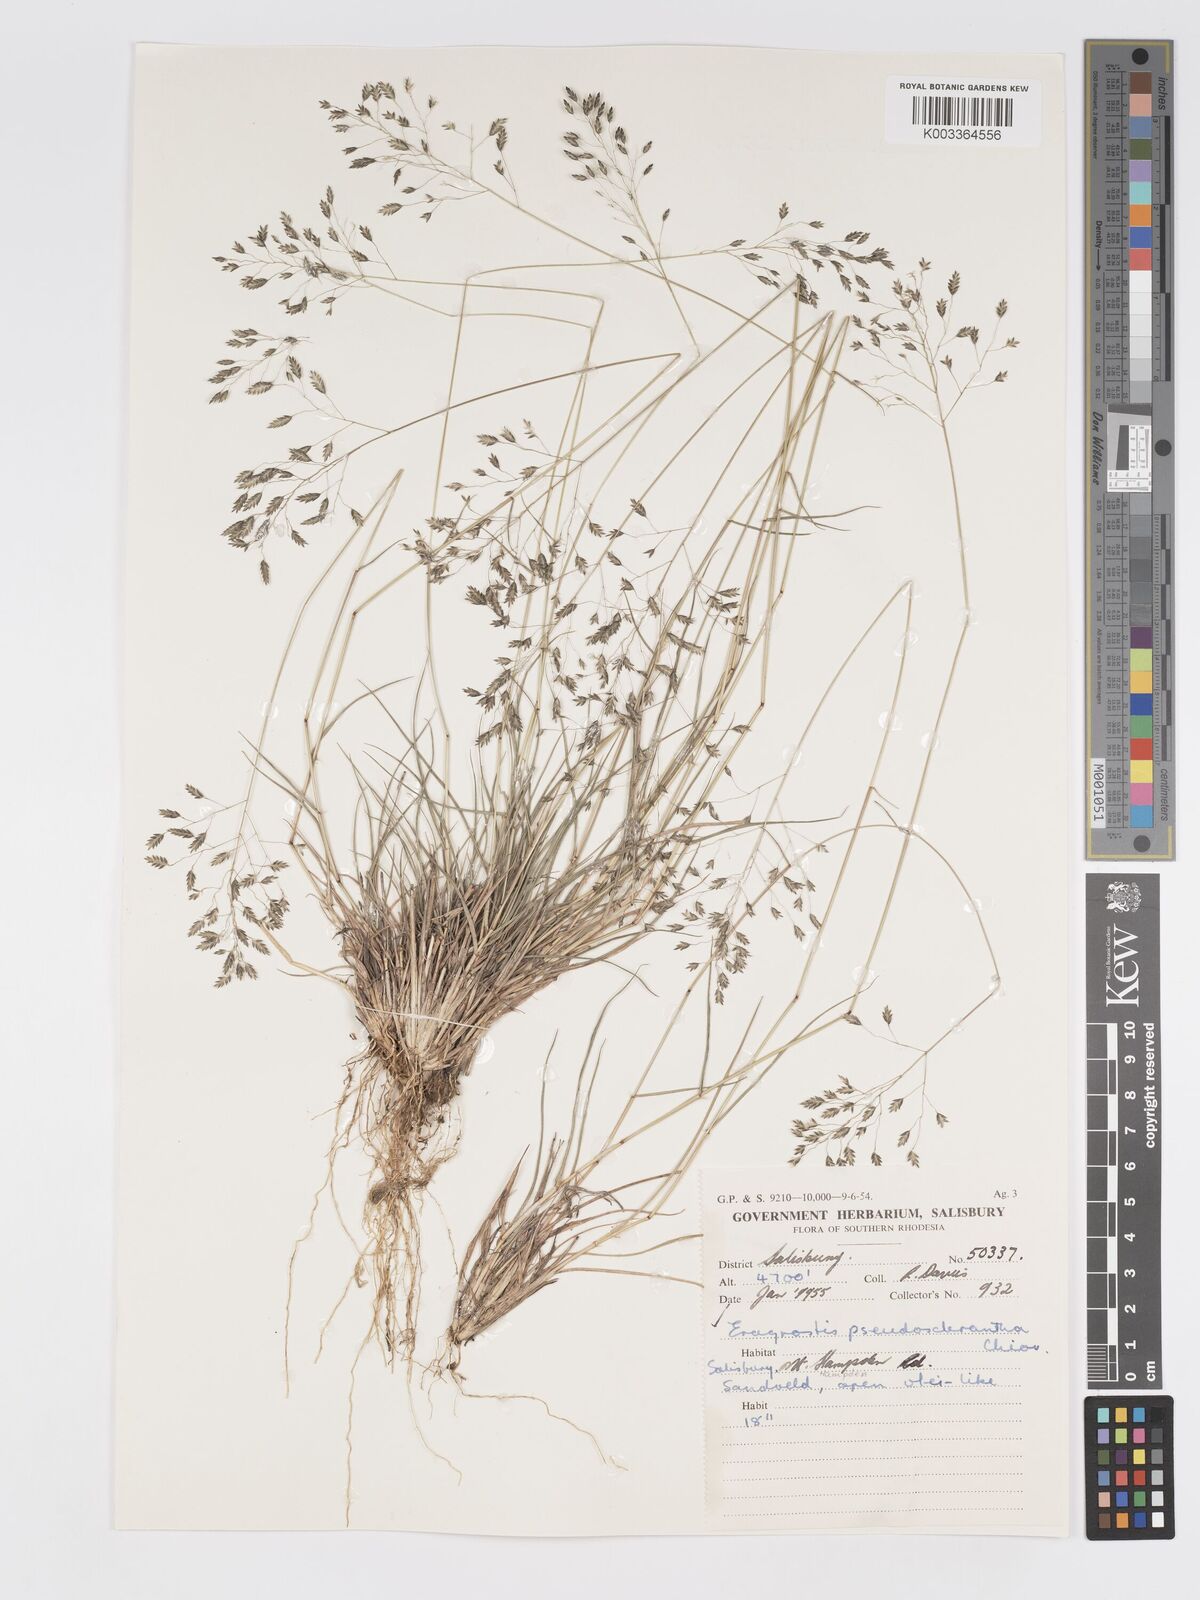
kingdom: Plantae
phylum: Tracheophyta
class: Liliopsida
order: Poales
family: Poaceae
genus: Eragrostis
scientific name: Eragrostis patentipilosa
